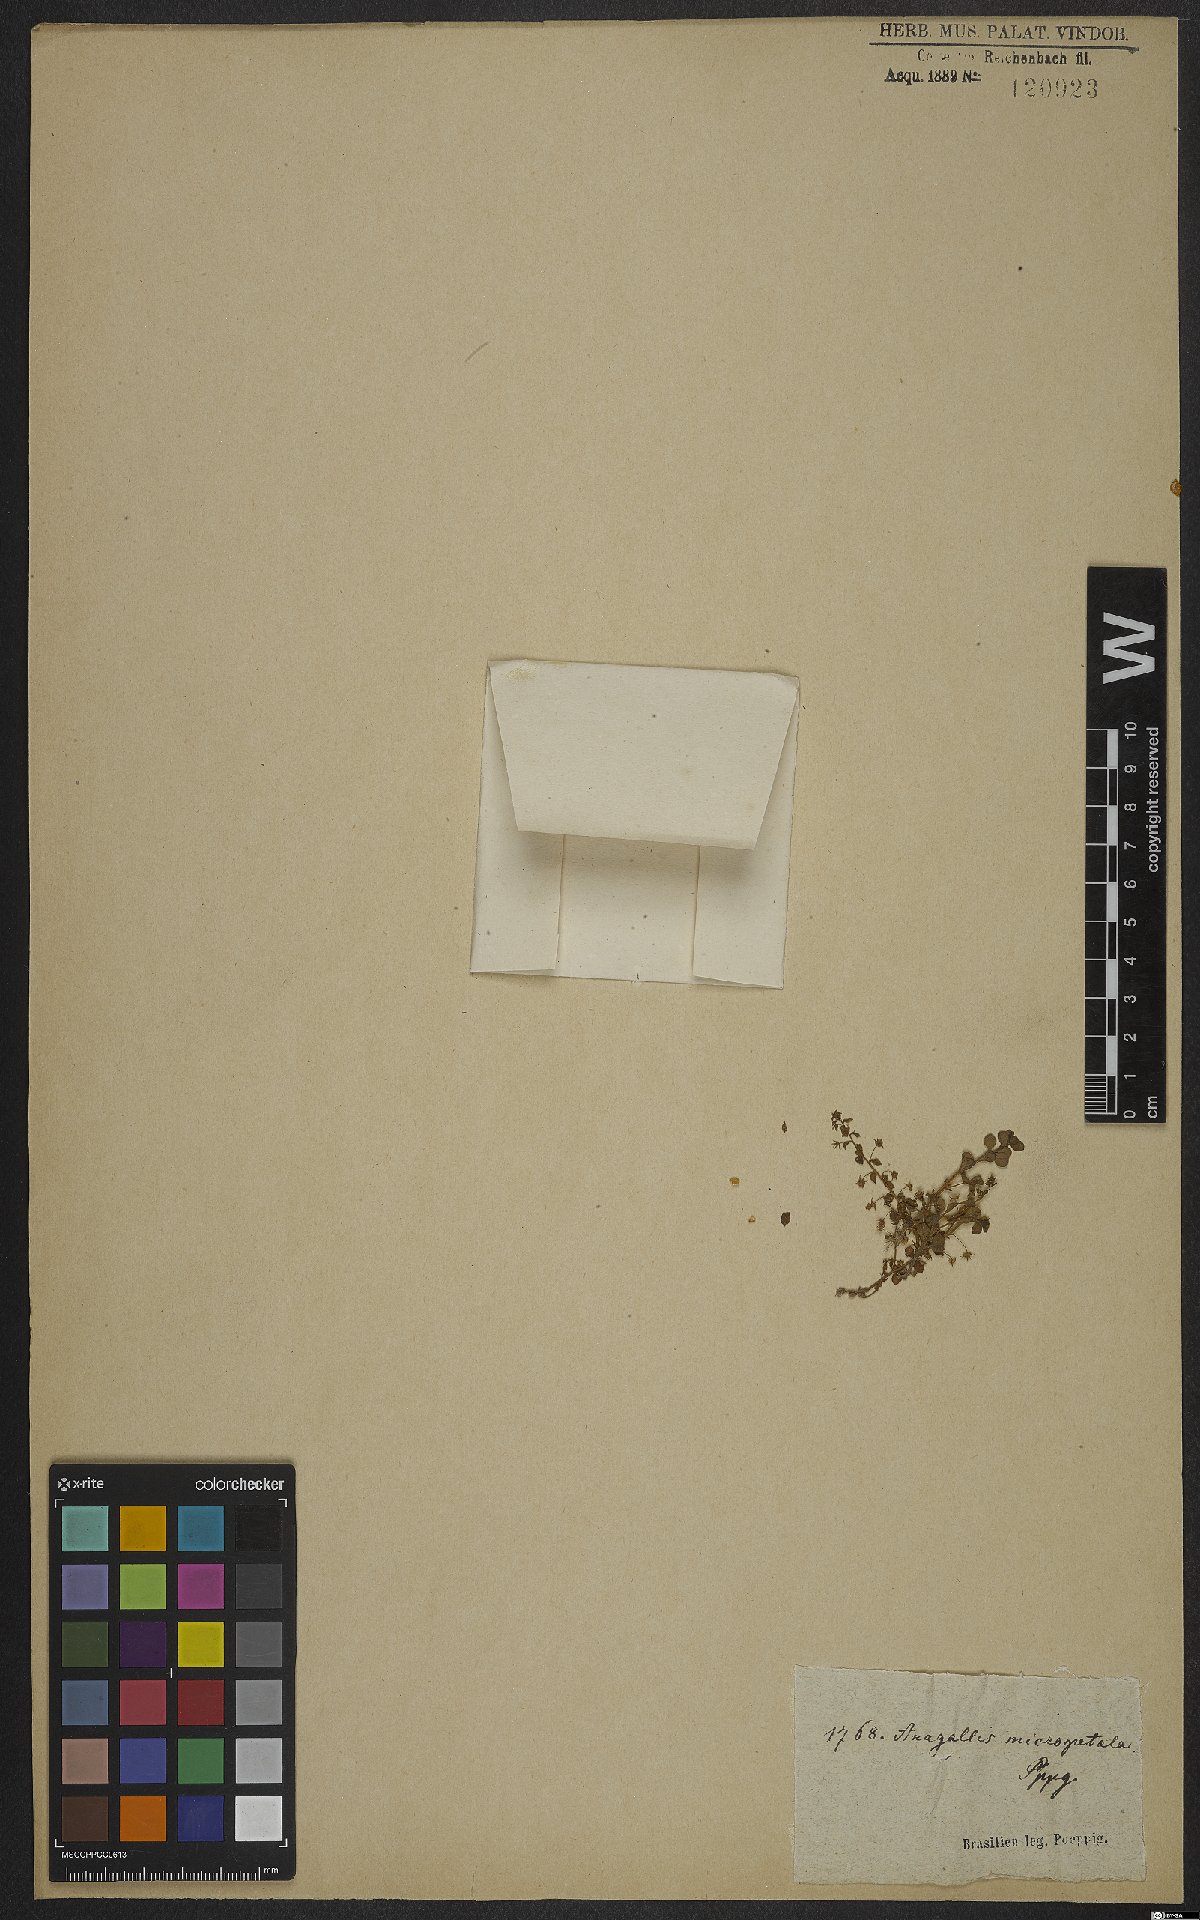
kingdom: Plantae
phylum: Tracheophyta
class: Magnoliopsida
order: Ericales
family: Primulaceae
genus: Lysimachia
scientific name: Lysimachia ovalis
